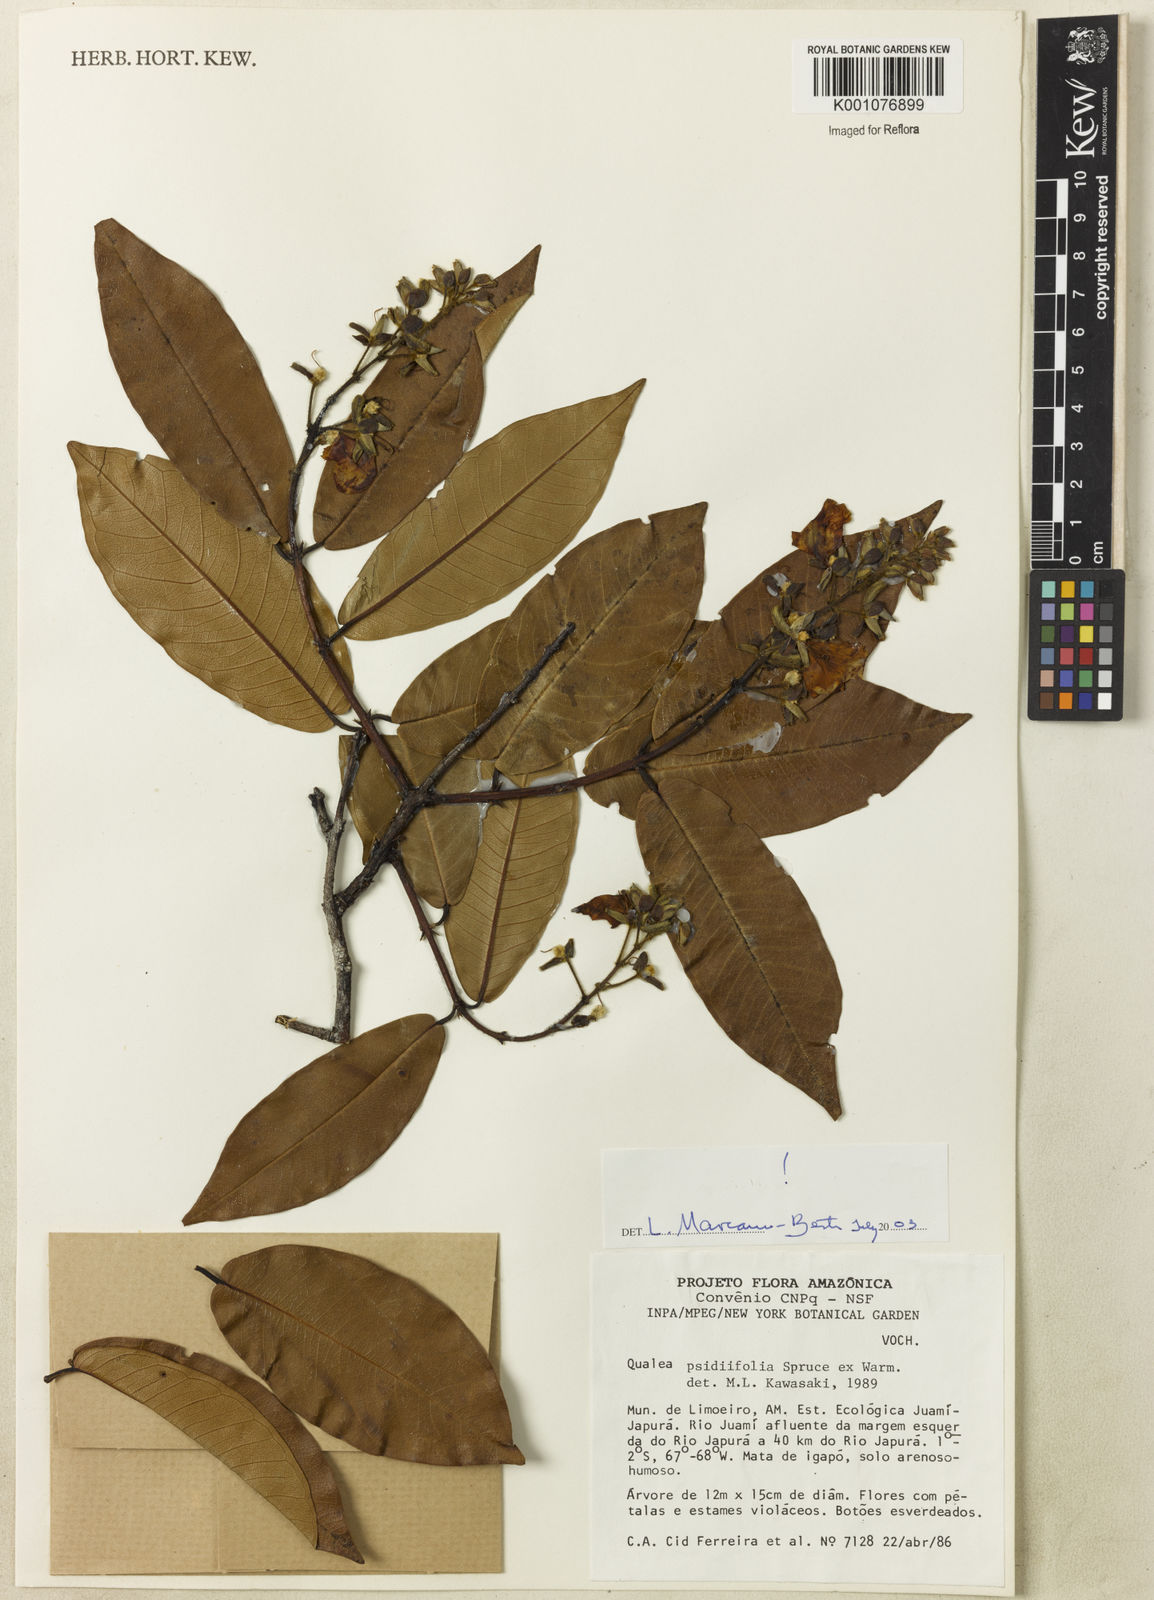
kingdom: Plantae
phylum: Tracheophyta
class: Magnoliopsida
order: Myrtales
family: Vochysiaceae
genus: Qualea
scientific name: Qualea psidiifolia
